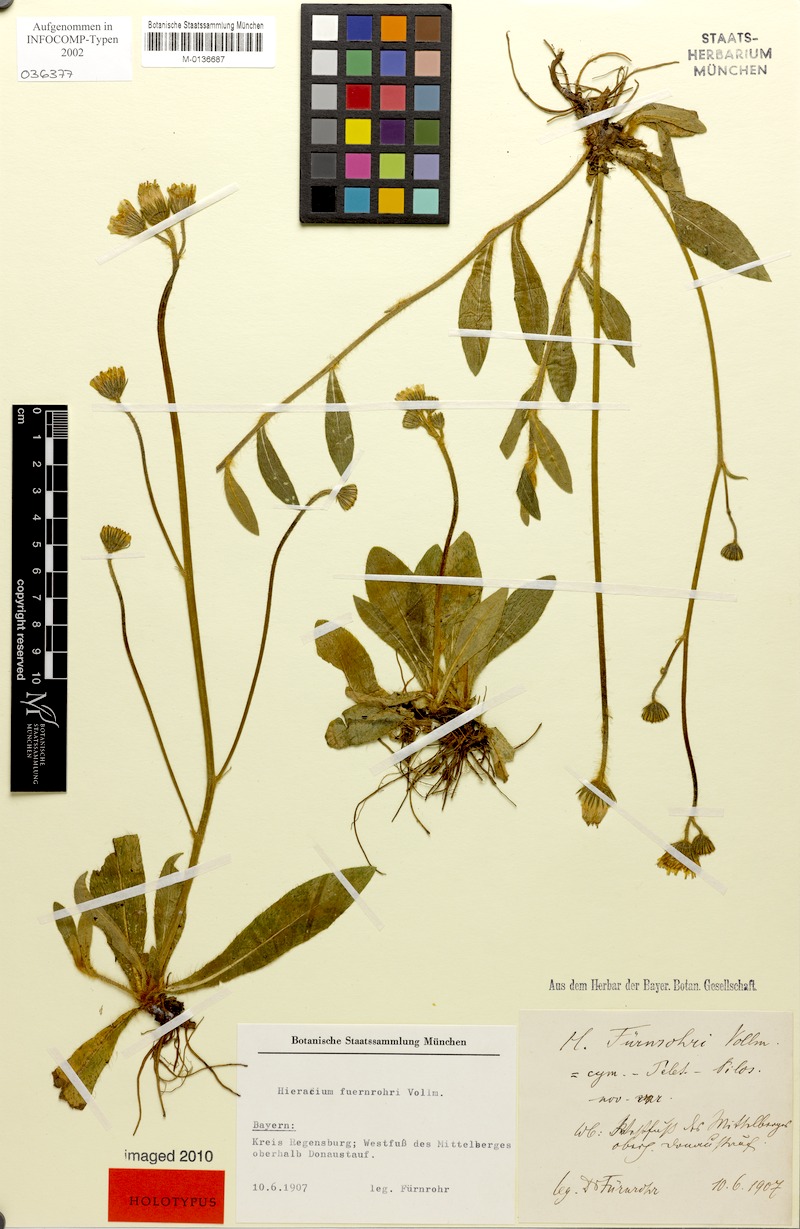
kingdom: Plantae
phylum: Tracheophyta
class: Magnoliopsida
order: Asterales
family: Asteraceae
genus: Pilosella
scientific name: Pilosella fuernrohrii
